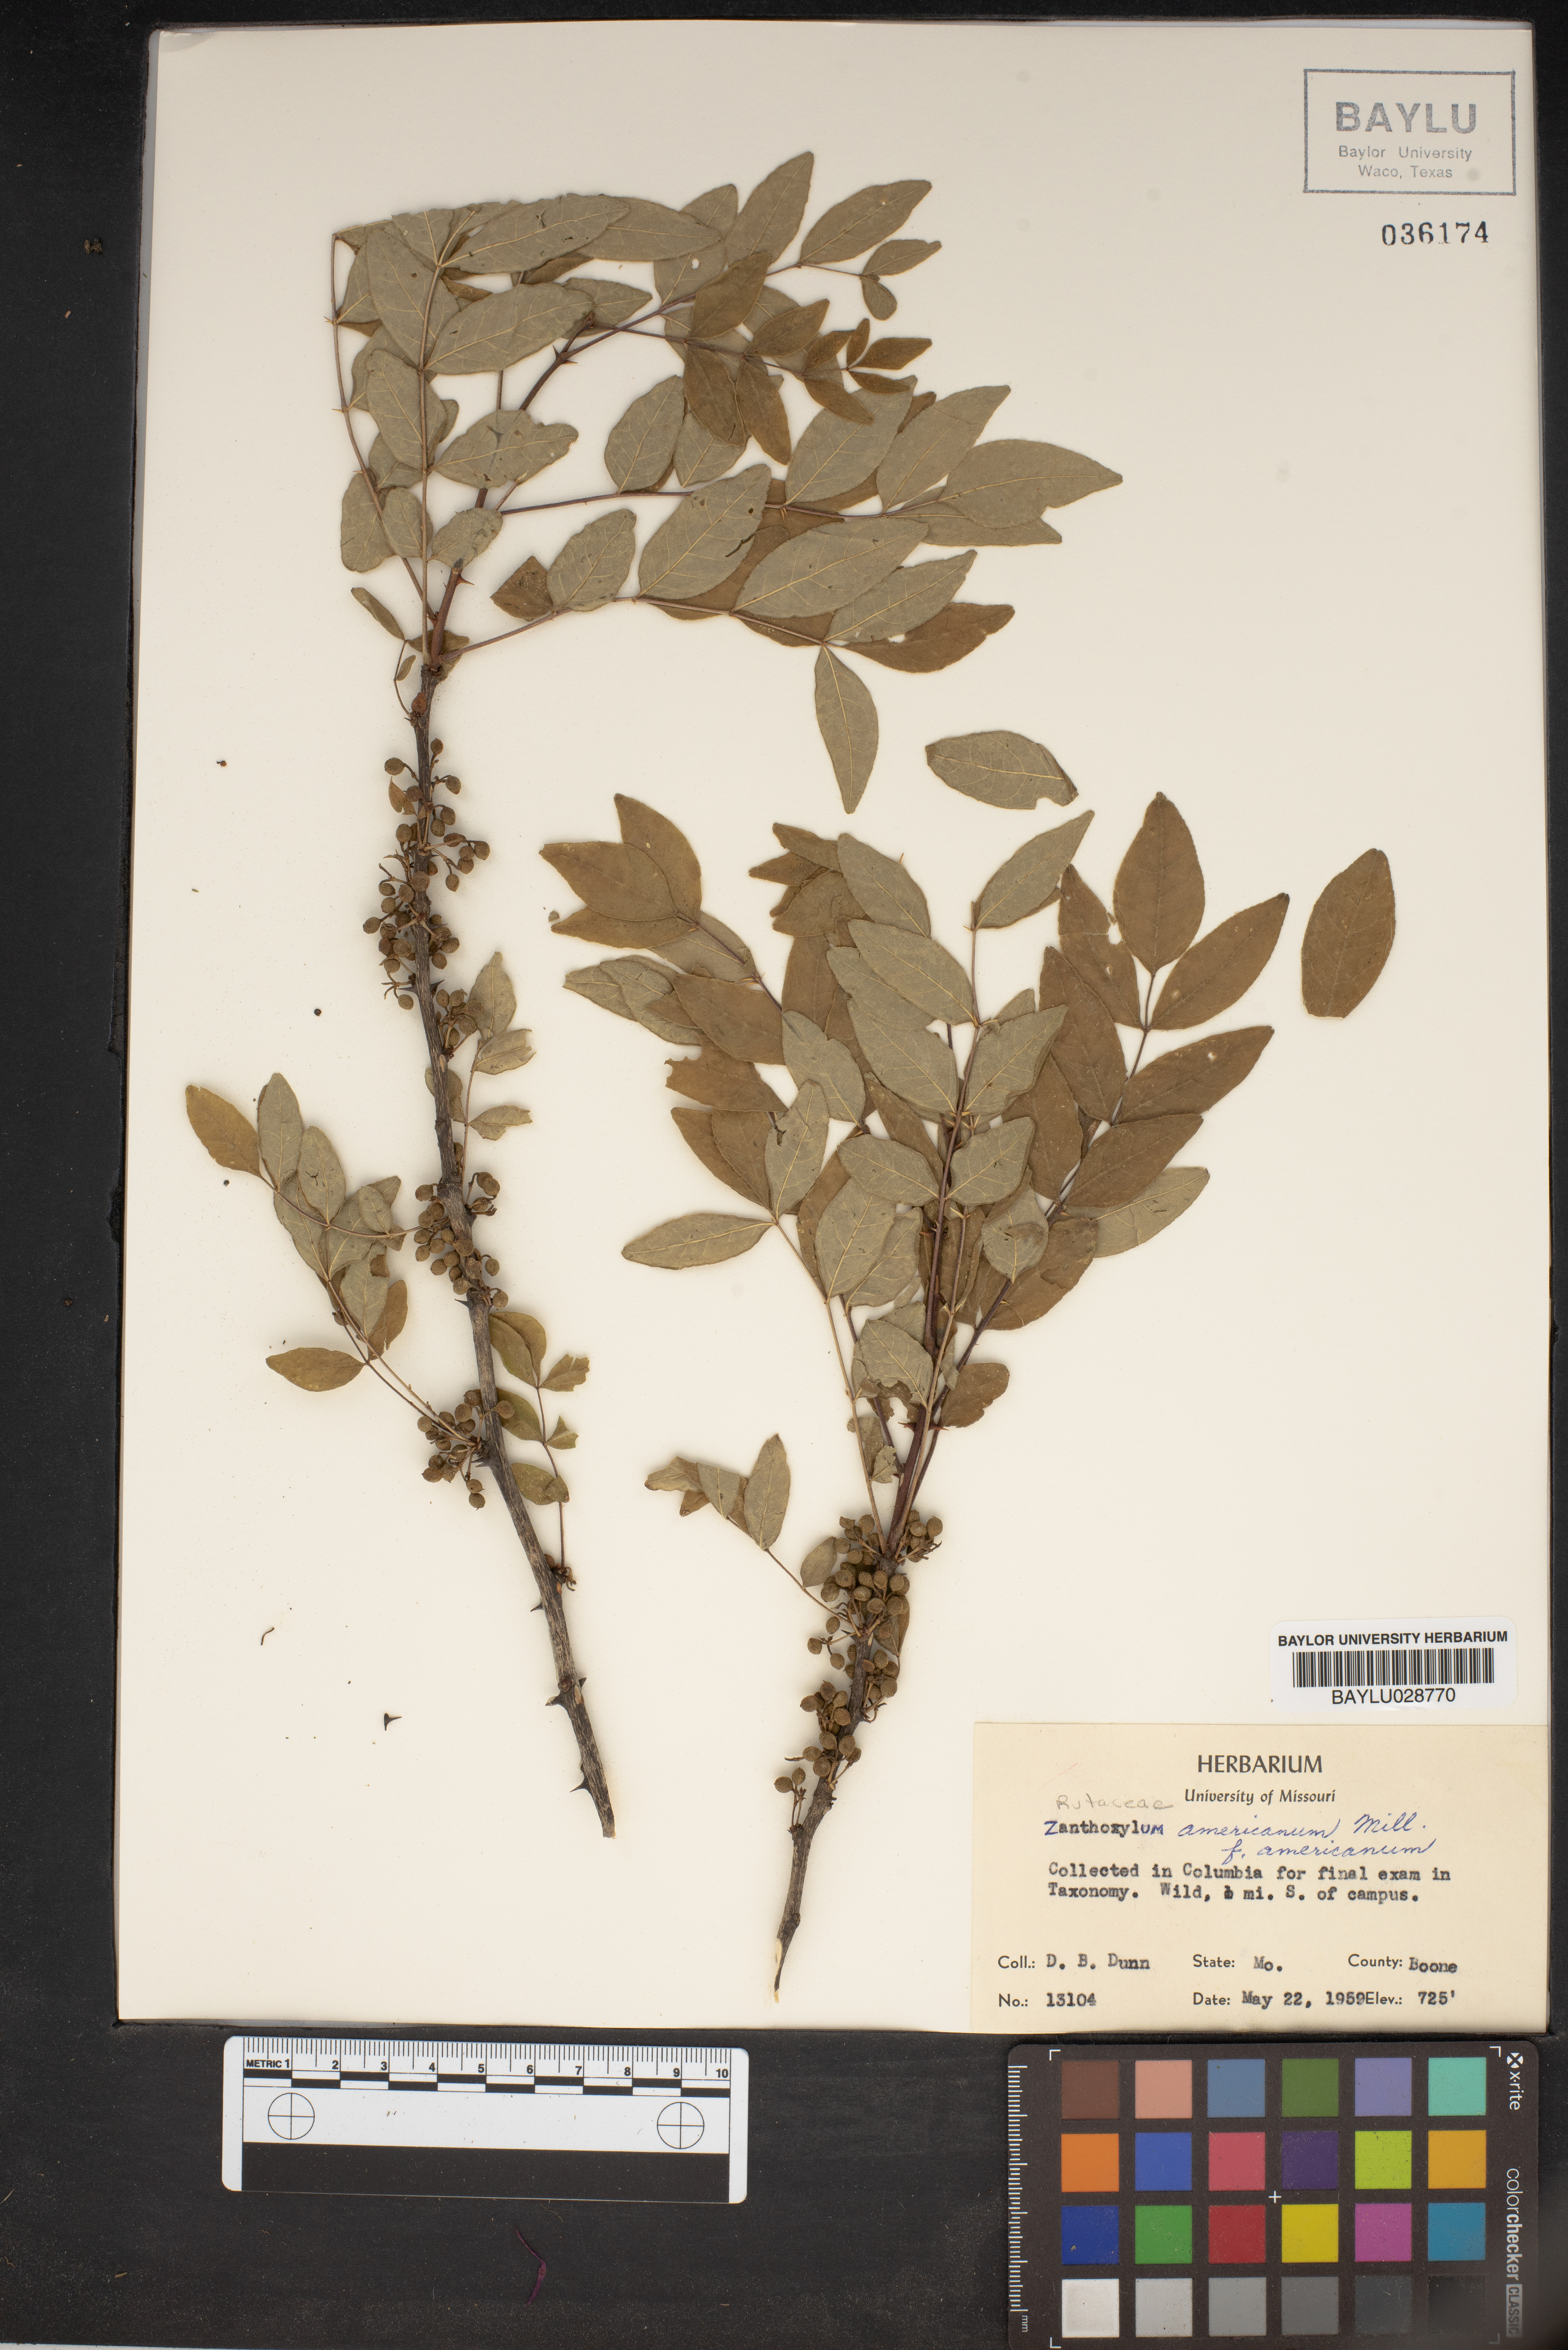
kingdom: Plantae
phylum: Tracheophyta
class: Magnoliopsida
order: Sapindales
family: Rutaceae
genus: Zanthoxylum
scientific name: Zanthoxylum americanum
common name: Northern prickly-ash
